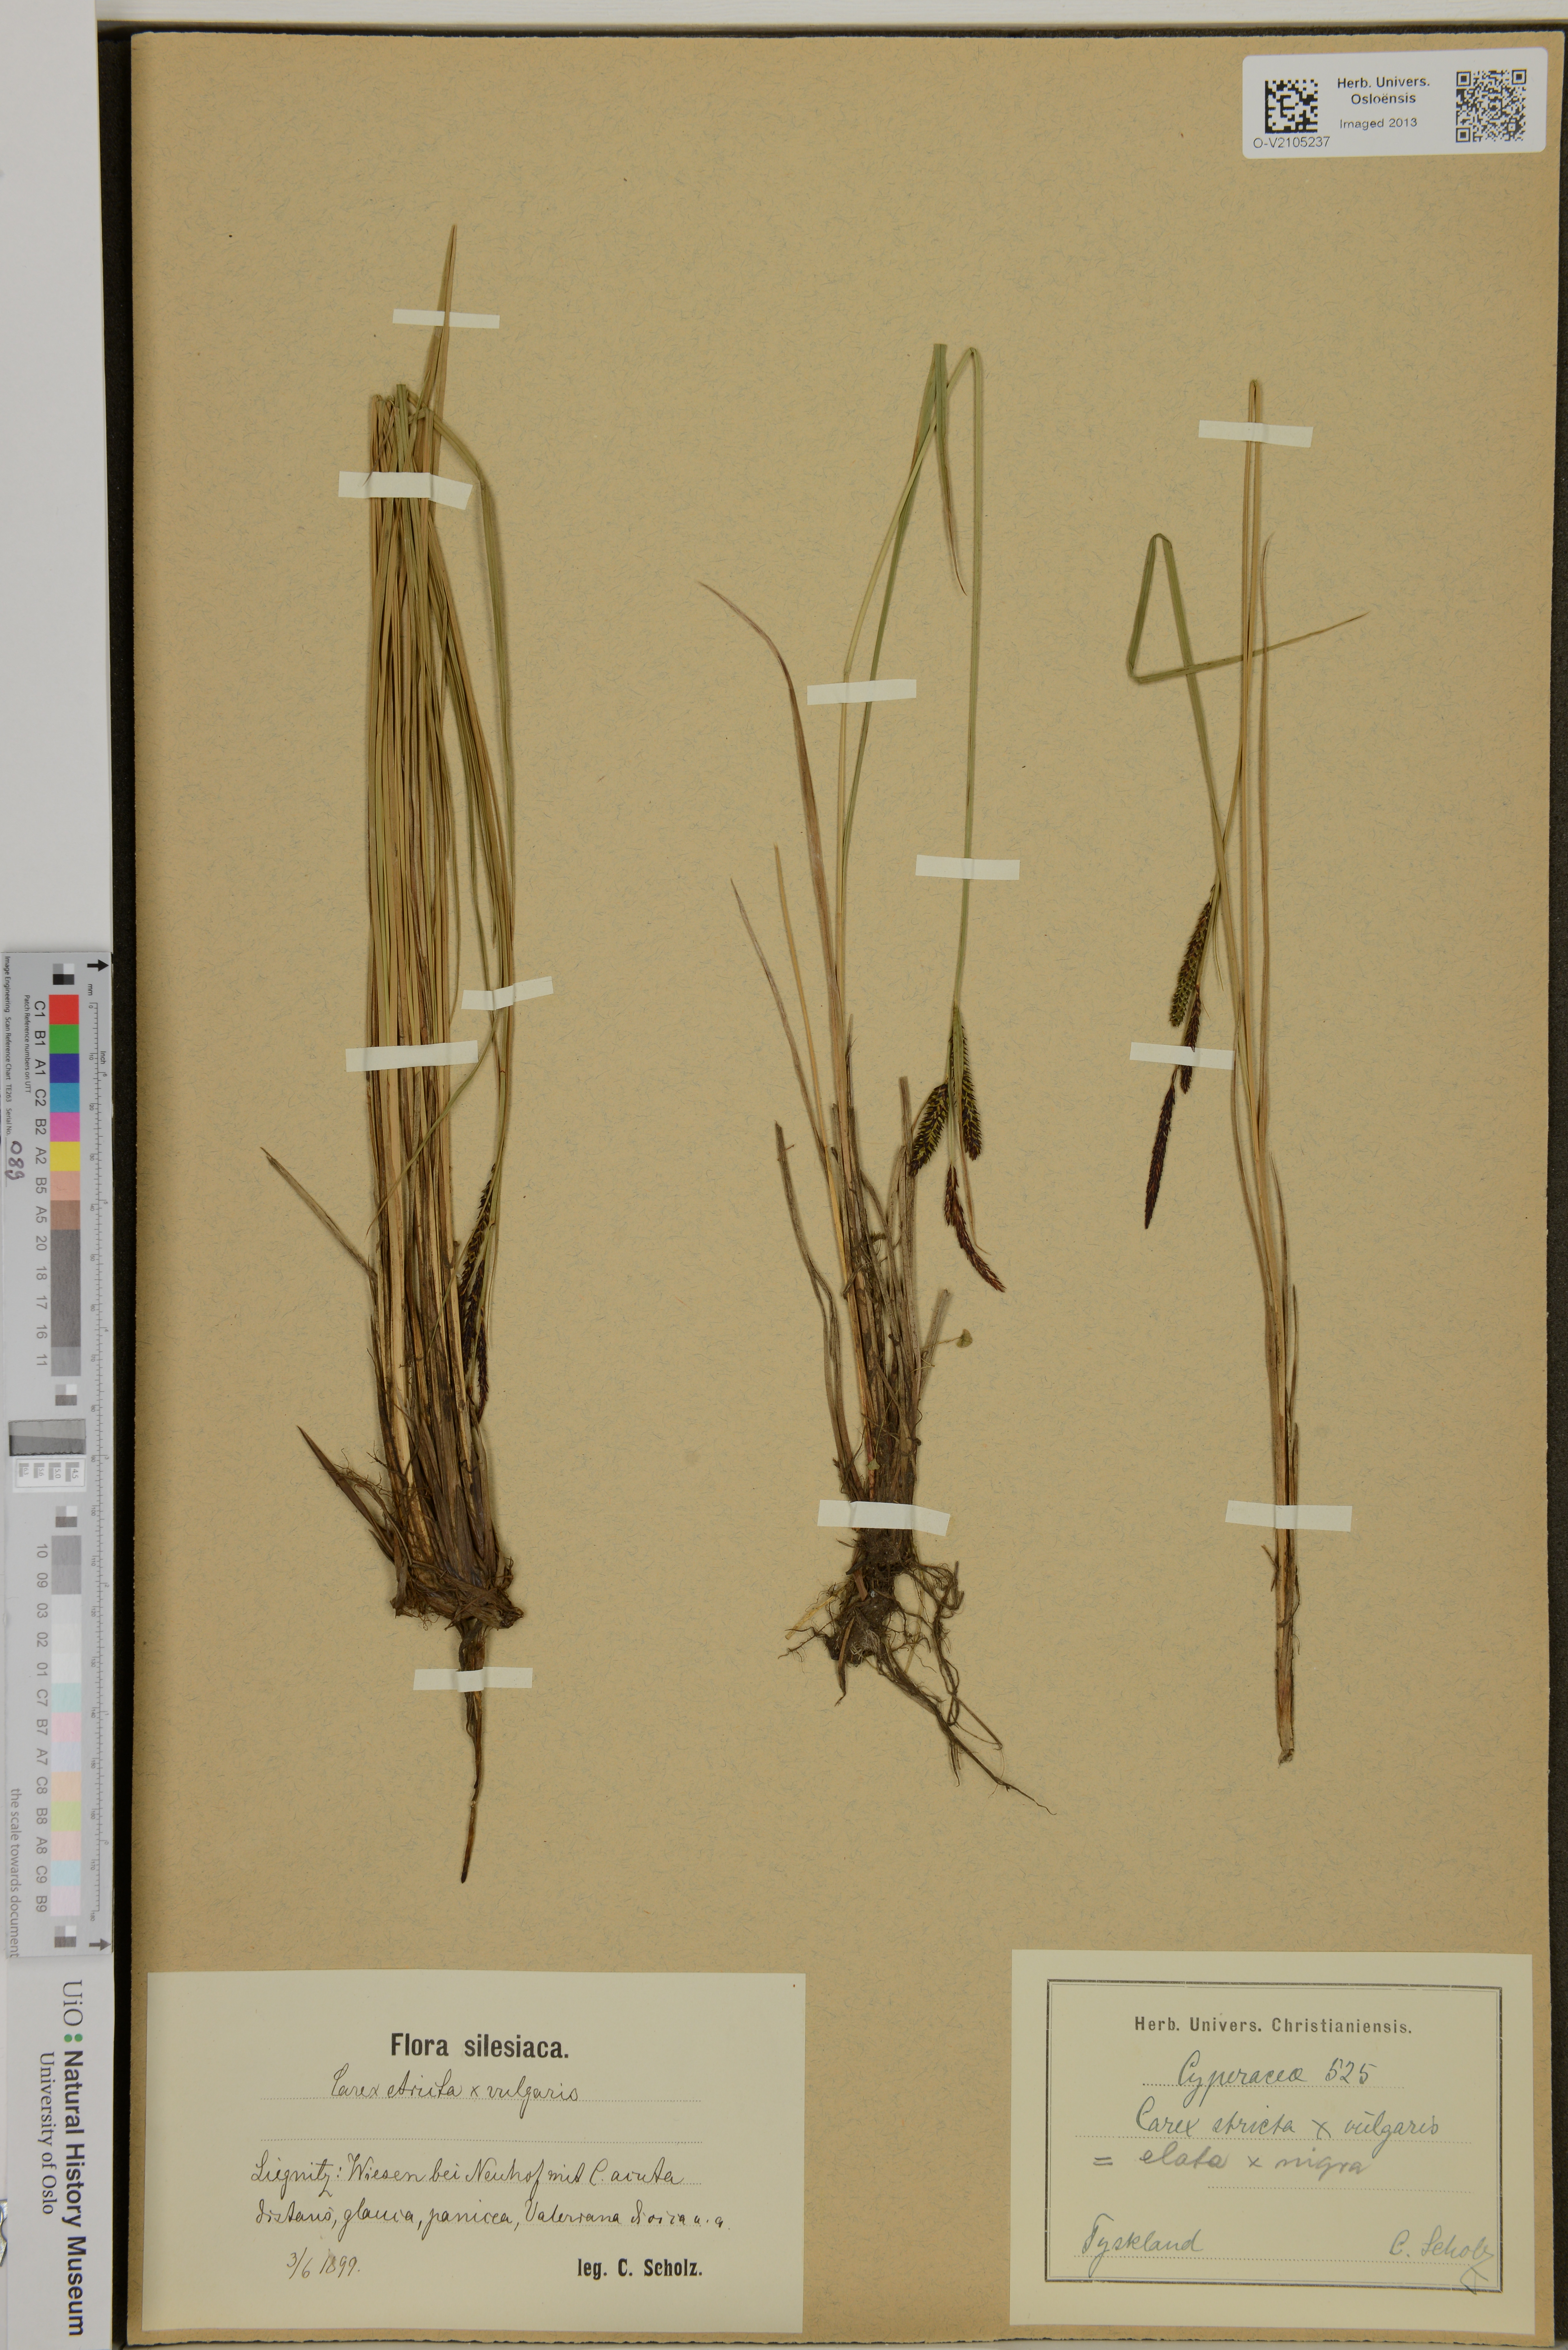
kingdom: Plantae
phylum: Tracheophyta
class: Liliopsida
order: Poales
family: Cyperaceae
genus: Carex
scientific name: Carex elata
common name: Tufted sedge
